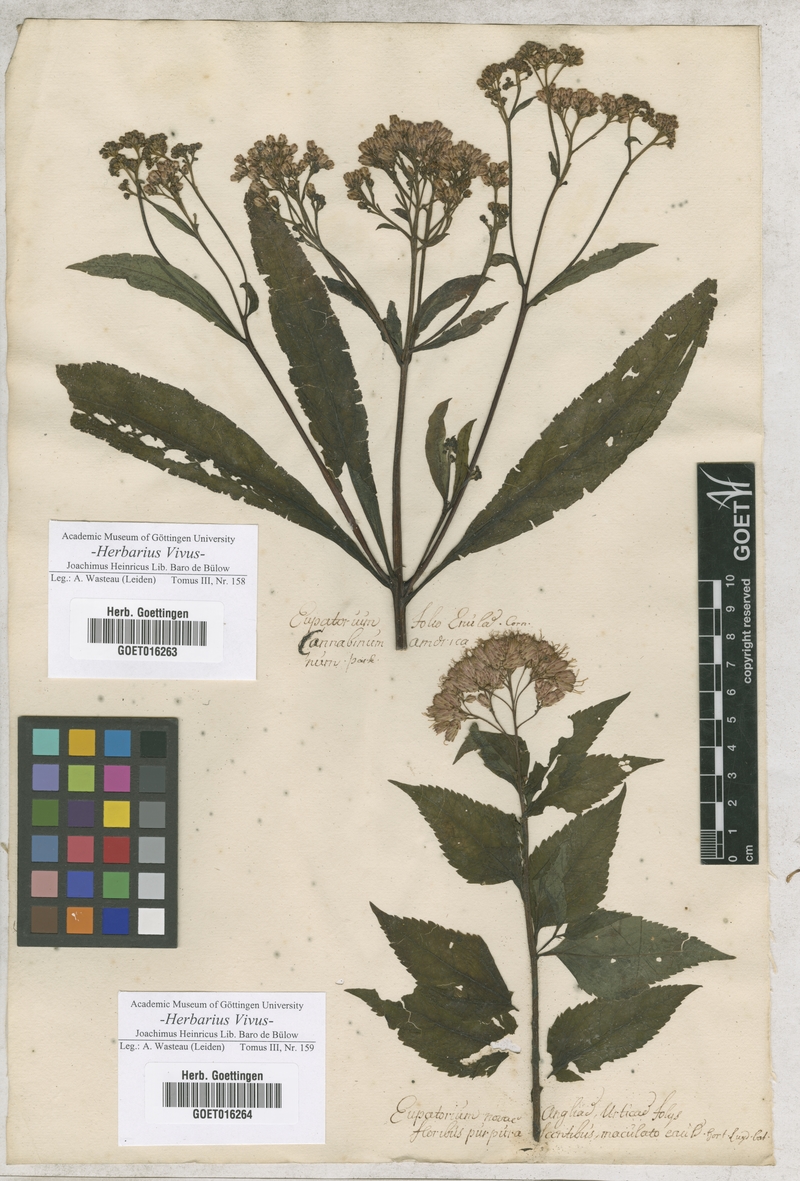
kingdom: Plantae
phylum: Tracheophyta
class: Magnoliopsida
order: Asterales
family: Asteraceae
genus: Eutrochium
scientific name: Eutrochium purpureum
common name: Gravelroot
